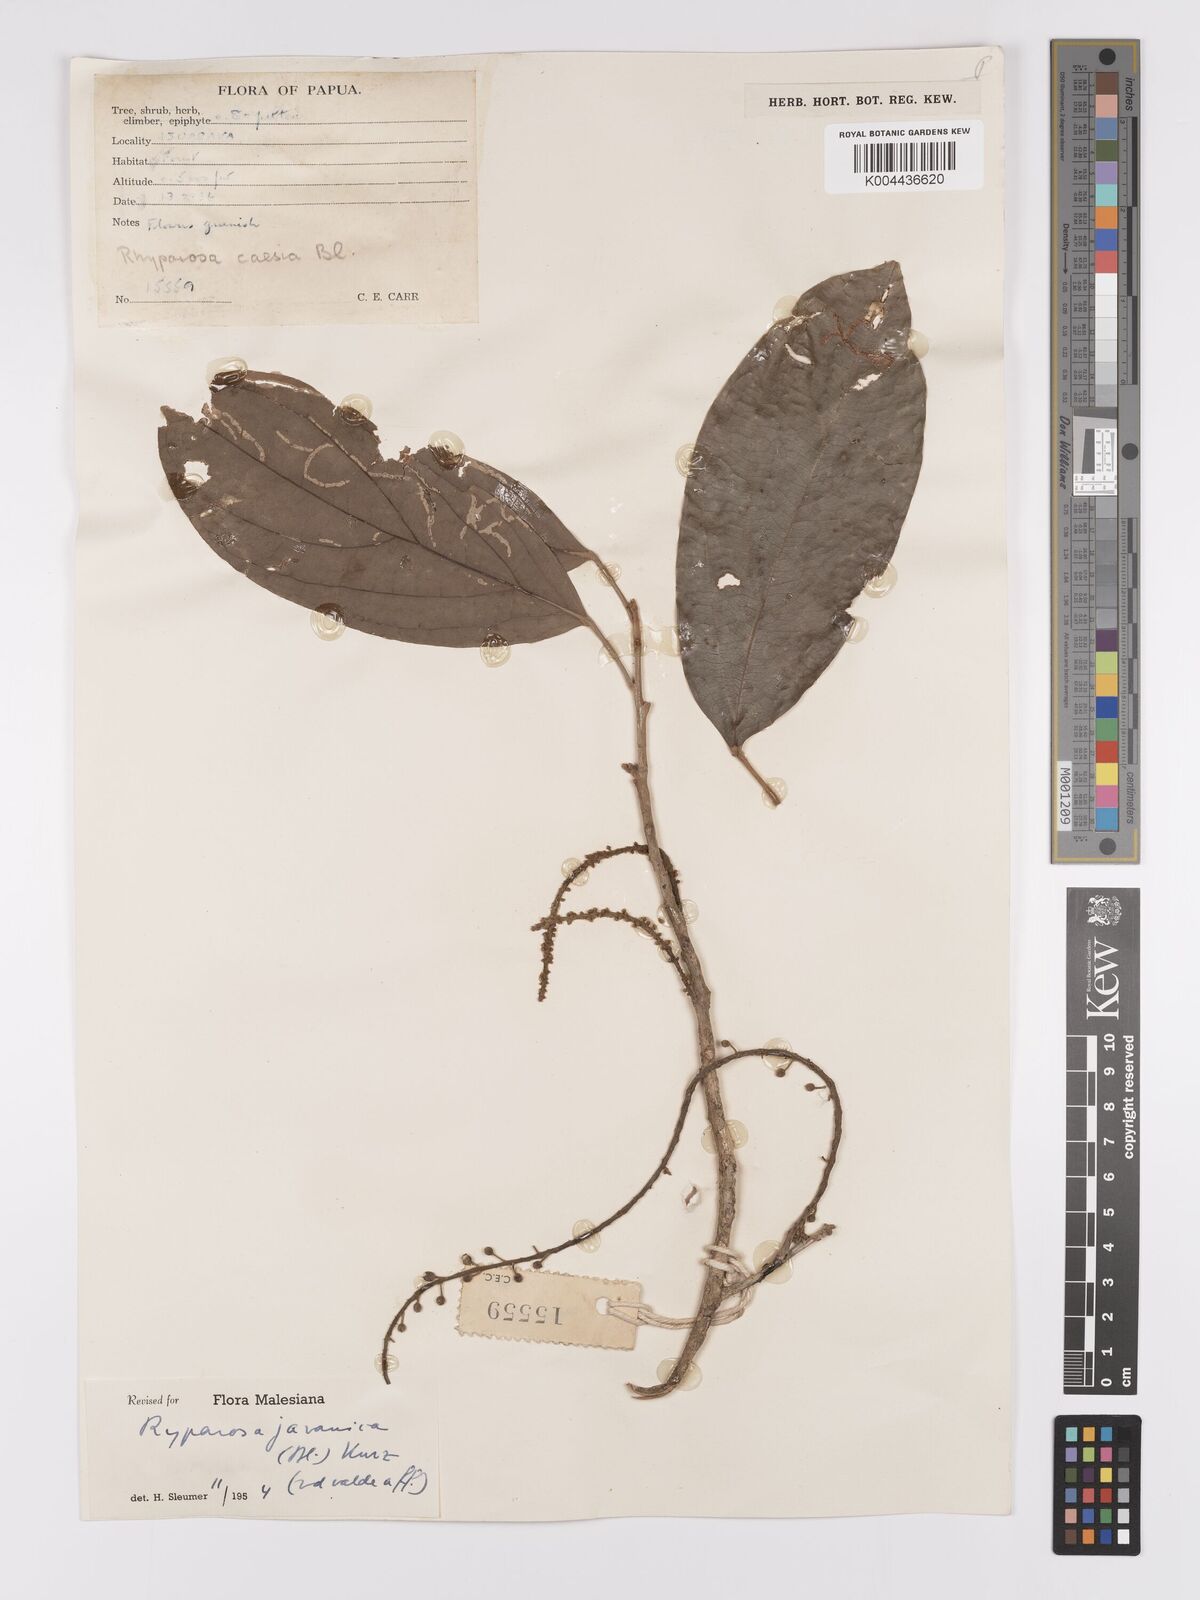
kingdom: Plantae
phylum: Tracheophyta
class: Magnoliopsida
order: Malpighiales
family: Achariaceae
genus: Ryparosa
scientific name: Ryparosa javanica
